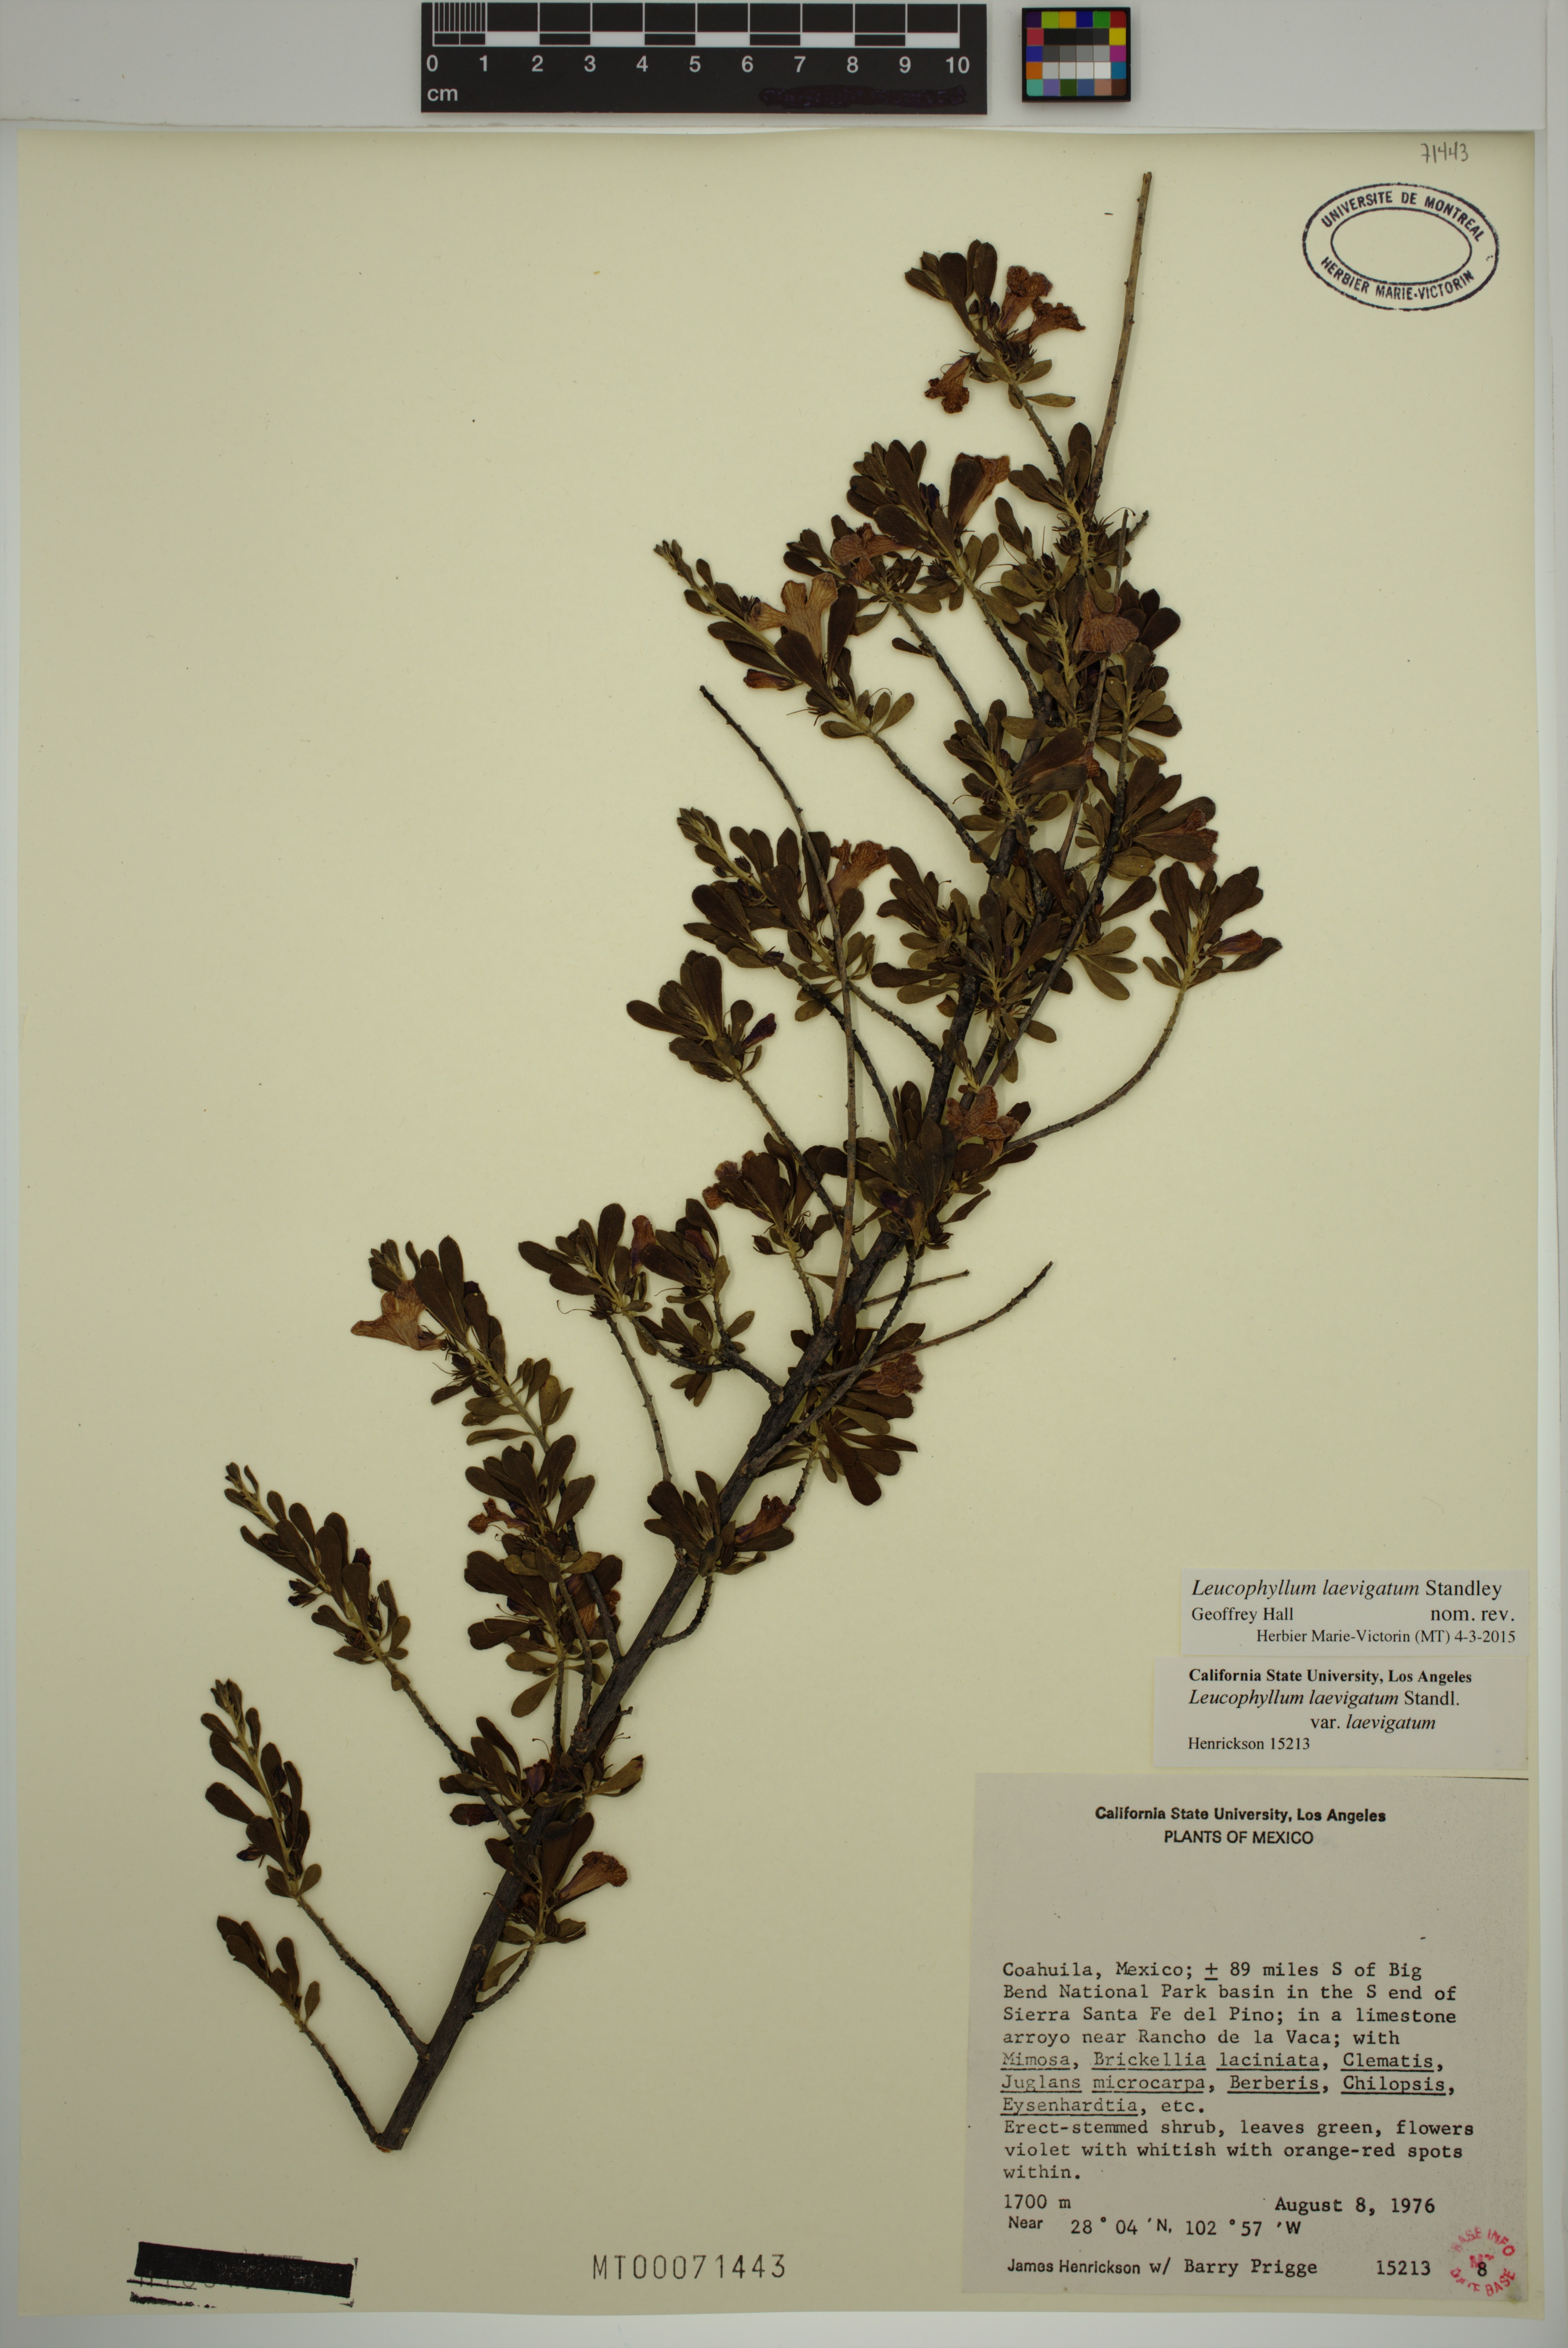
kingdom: Plantae
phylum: Tracheophyta
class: Magnoliopsida
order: Lamiales
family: Scrophulariaceae
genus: Leucophyllum
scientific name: Leucophyllum laevigatum
